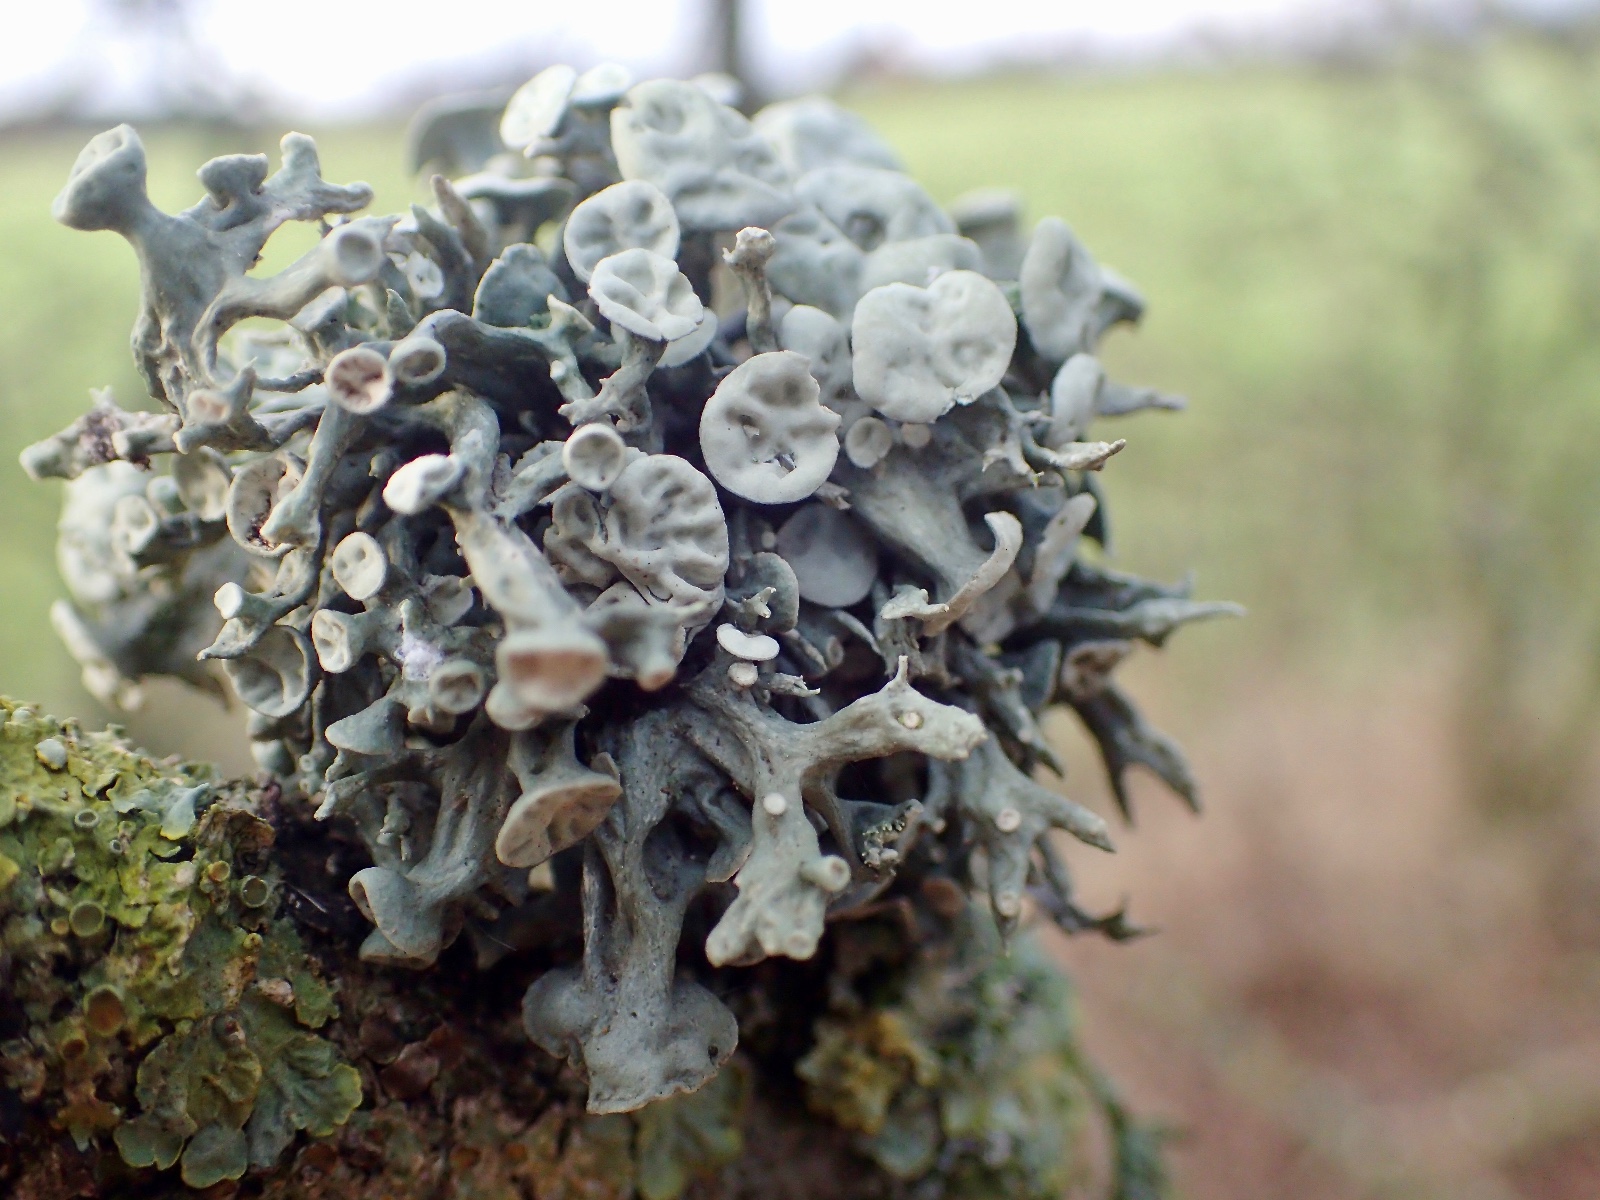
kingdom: Fungi
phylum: Ascomycota
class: Lecanoromycetes
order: Lecanorales
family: Ramalinaceae
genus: Ramalina
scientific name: Ramalina fastigiata
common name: tue-grenlav
